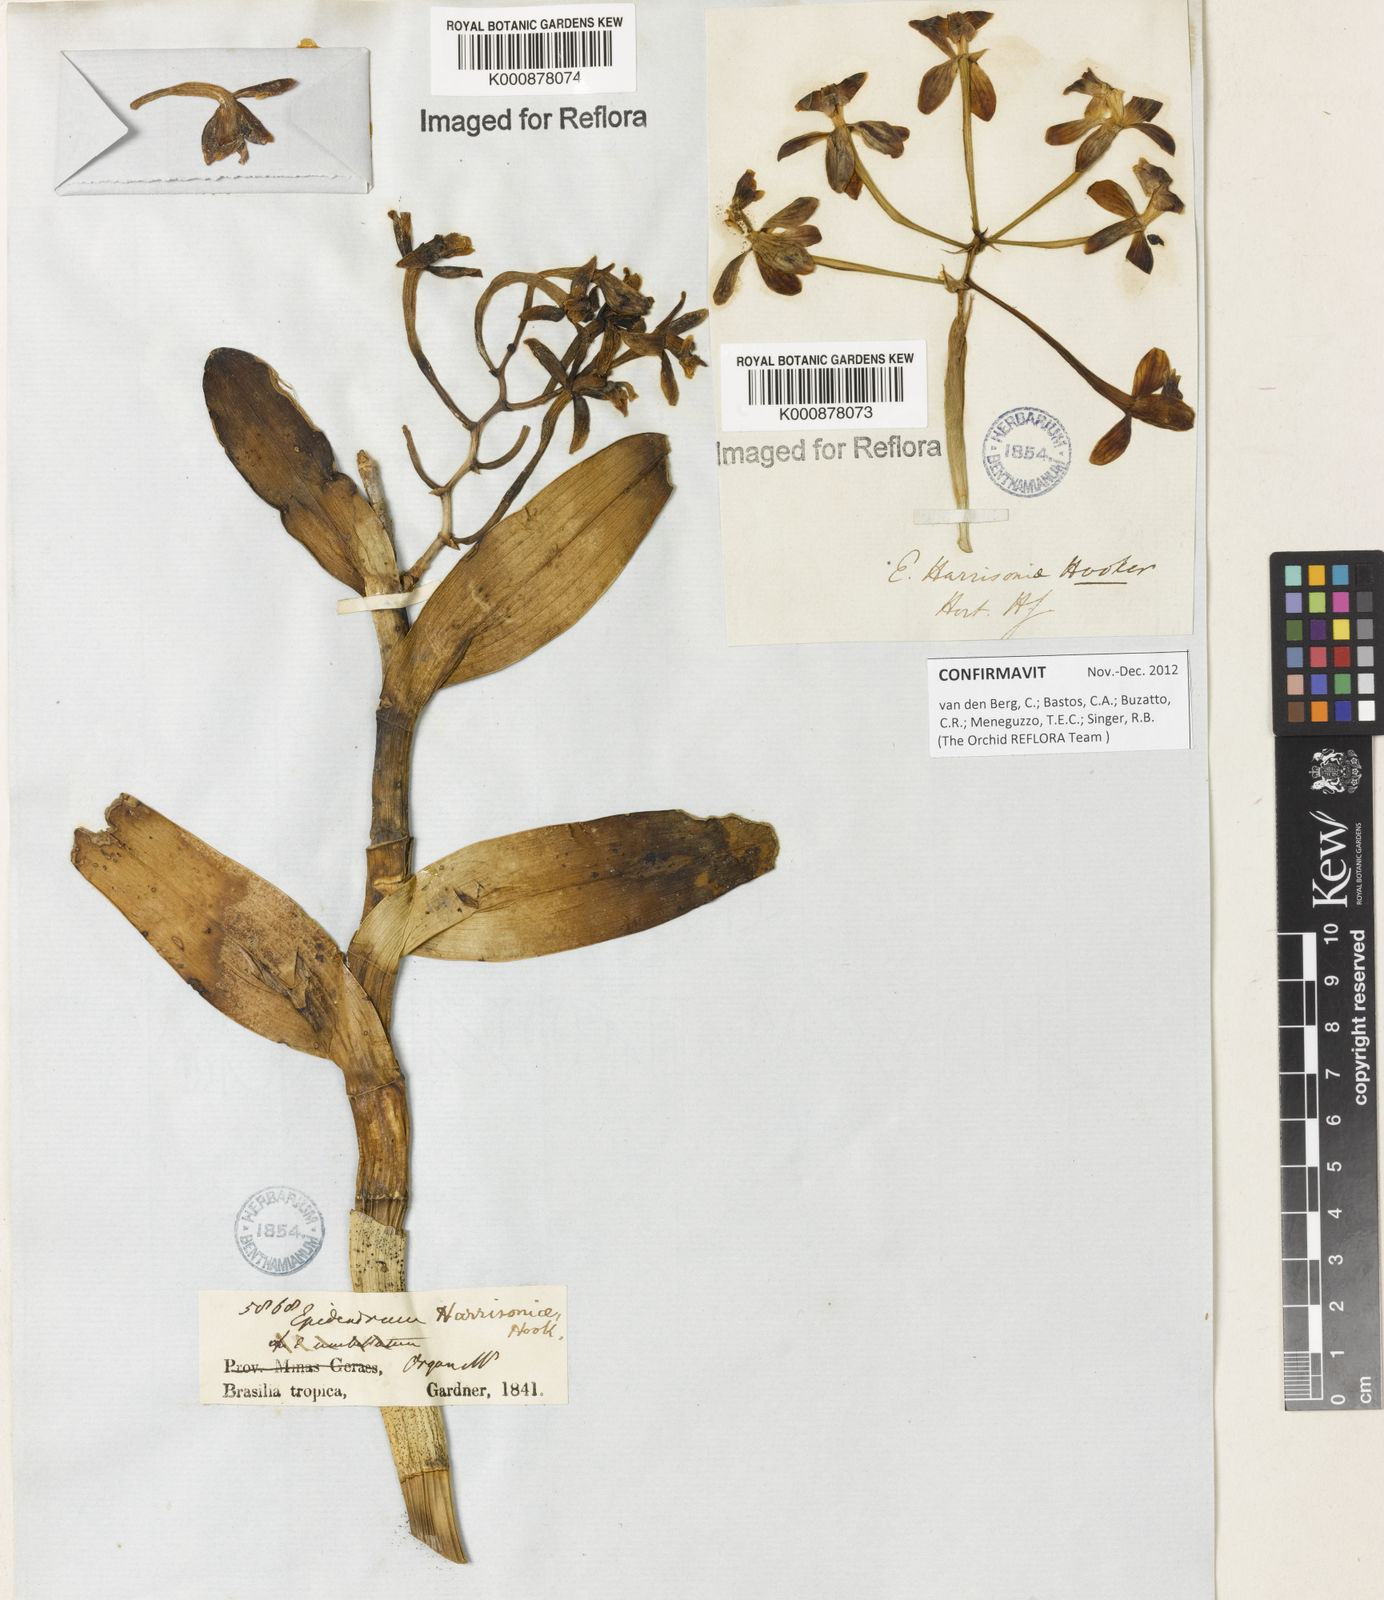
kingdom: Plantae
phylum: Tracheophyta
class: Liliopsida
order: Asparagales
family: Orchidaceae
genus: Epidendrum
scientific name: Epidendrum harrisoniae
